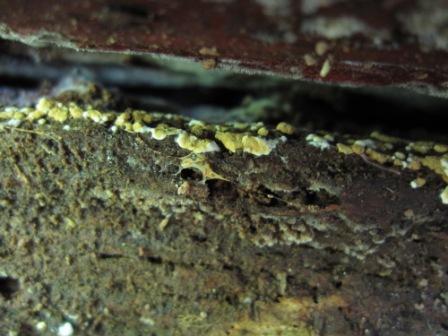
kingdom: Fungi
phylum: Basidiomycota
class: Agaricomycetes
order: Cantharellales
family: Botryobasidiaceae
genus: Botryobasidium
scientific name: Botryobasidium aureum
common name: gylden spindhinde
